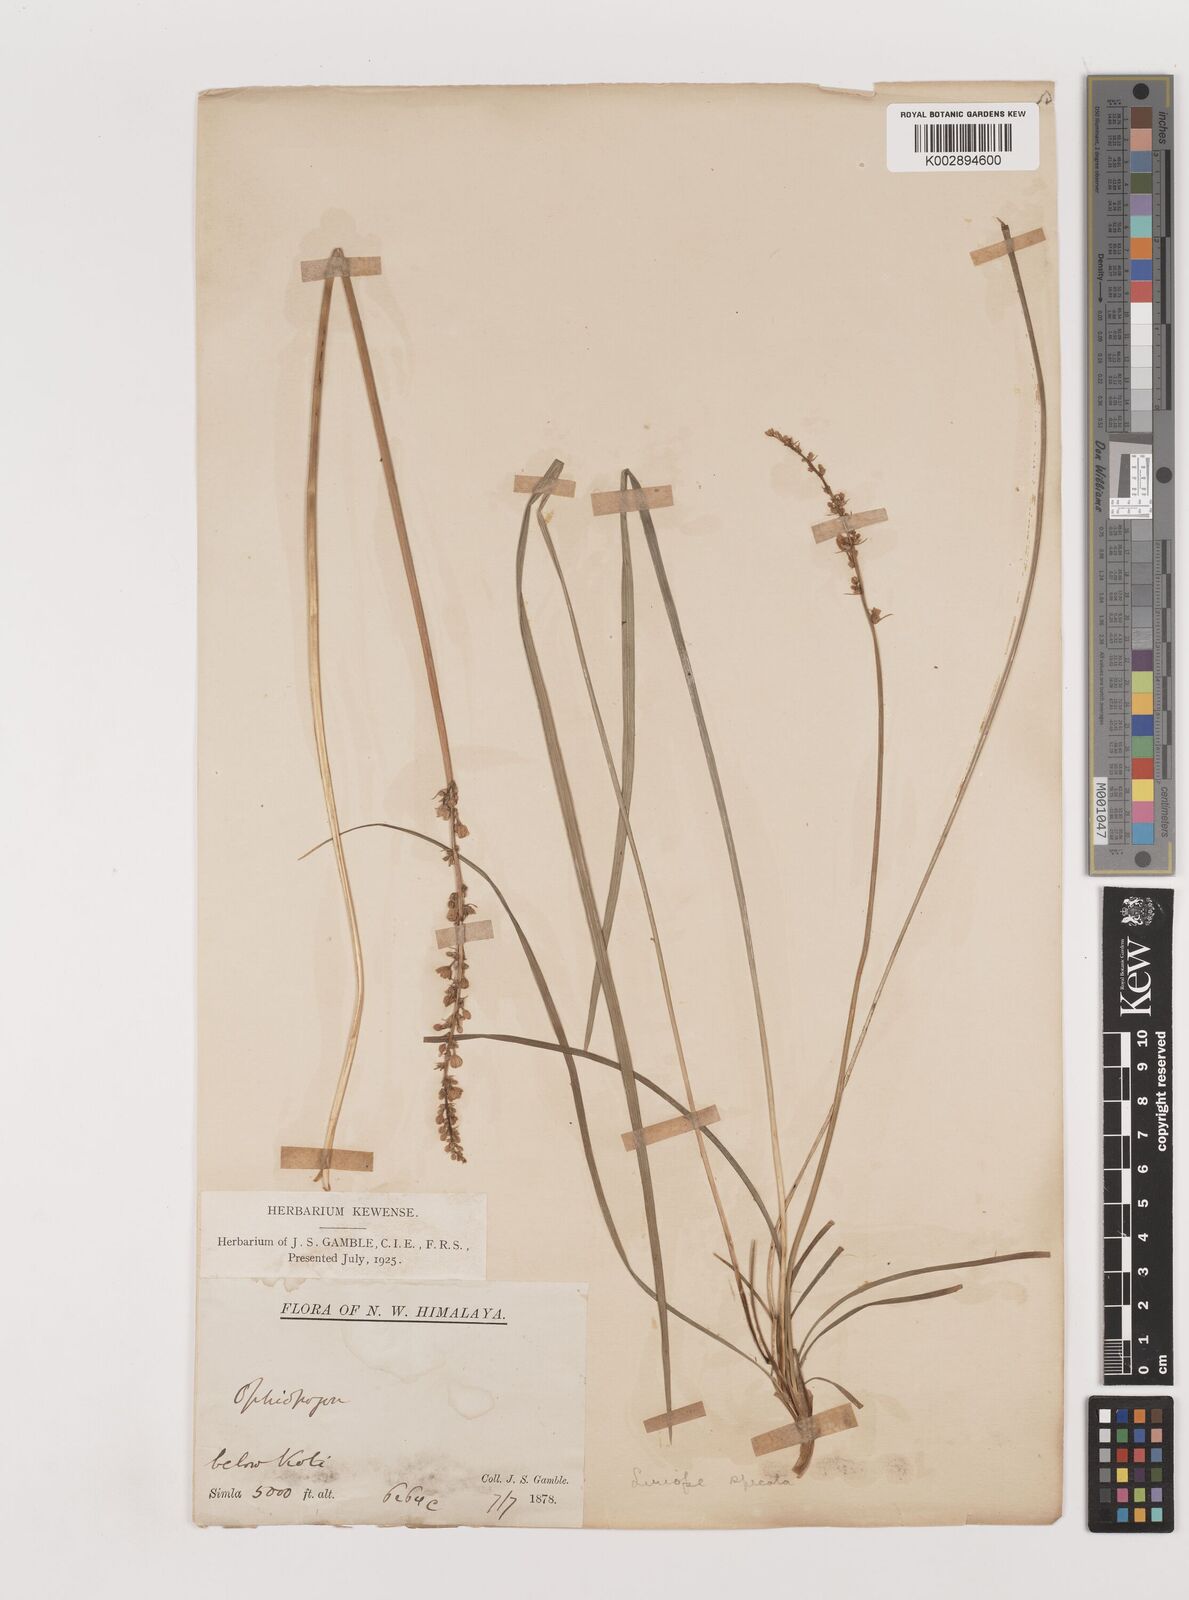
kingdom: Plantae
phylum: Tracheophyta
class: Liliopsida
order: Asparagales
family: Asparagaceae
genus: Liriope
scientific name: Liriope
